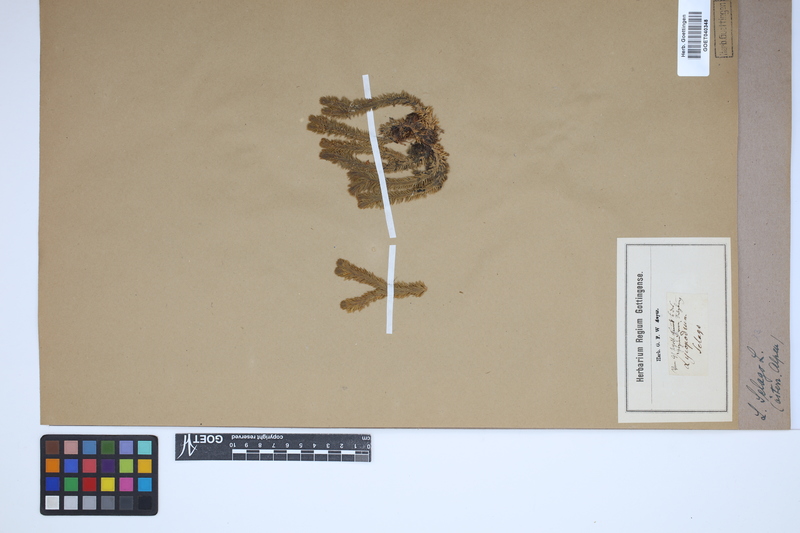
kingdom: Plantae
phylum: Tracheophyta
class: Lycopodiopsida
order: Lycopodiales
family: Lycopodiaceae
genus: Huperzia
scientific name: Huperzia selago
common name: Northern firmoss
